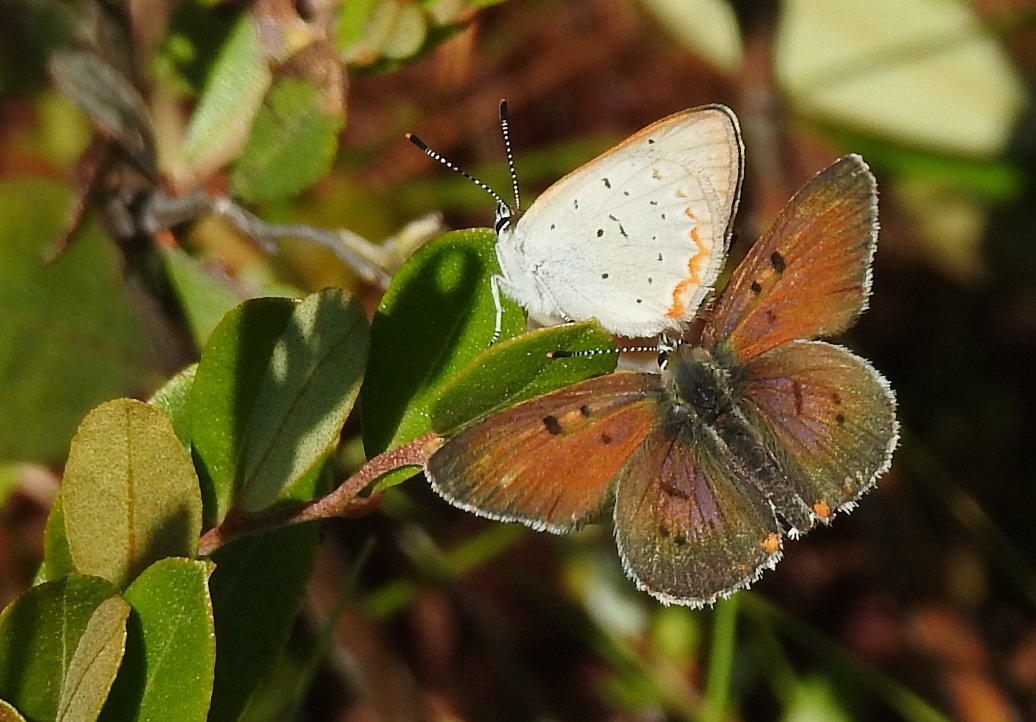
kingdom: Animalia
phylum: Arthropoda
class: Insecta
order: Lepidoptera
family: Sesiidae
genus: Sesia
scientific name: Sesia Lycaena epixanthe
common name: Bog Copper
